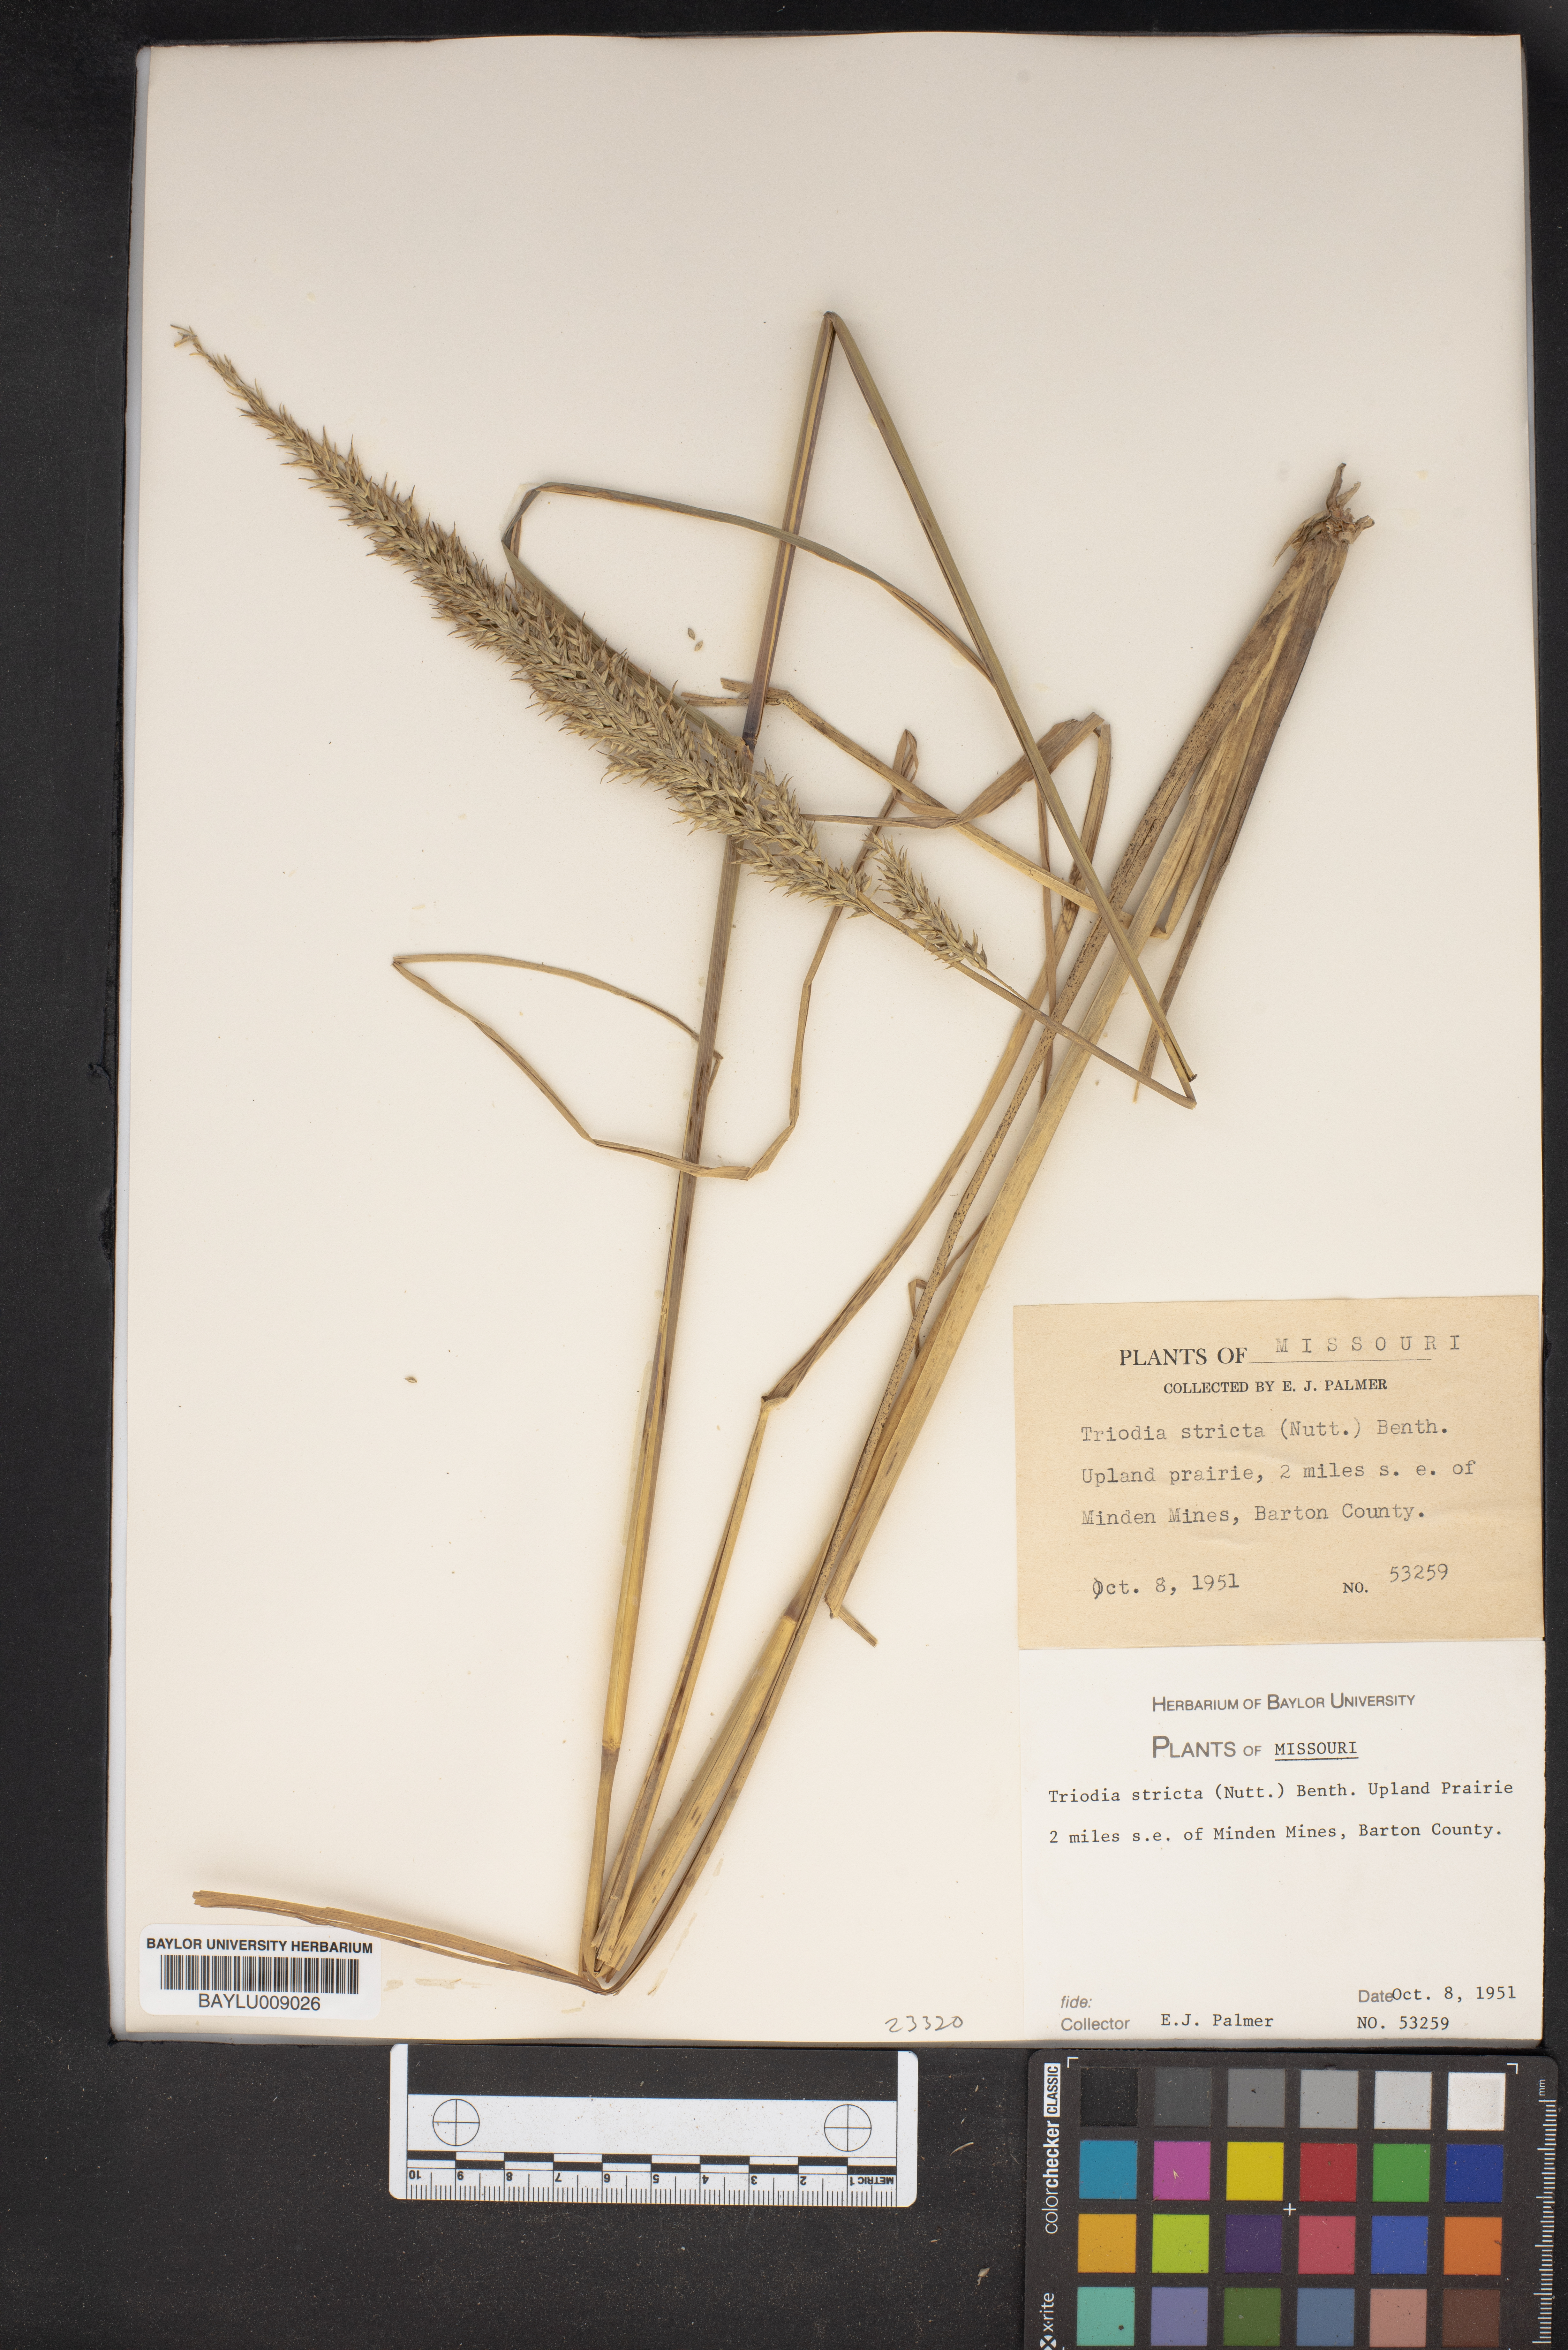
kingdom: Plantae
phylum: Tracheophyta
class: Liliopsida
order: Poales
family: Poaceae
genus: Tridens
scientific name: Tridens strictus
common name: Long-spike tridens
